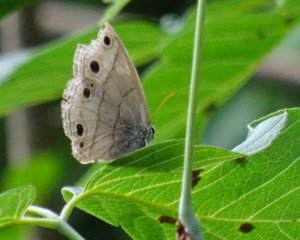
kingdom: Animalia
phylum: Arthropoda
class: Insecta
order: Lepidoptera
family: Nymphalidae
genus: Euptychia
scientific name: Euptychia cymela
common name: Little Wood Satyr
